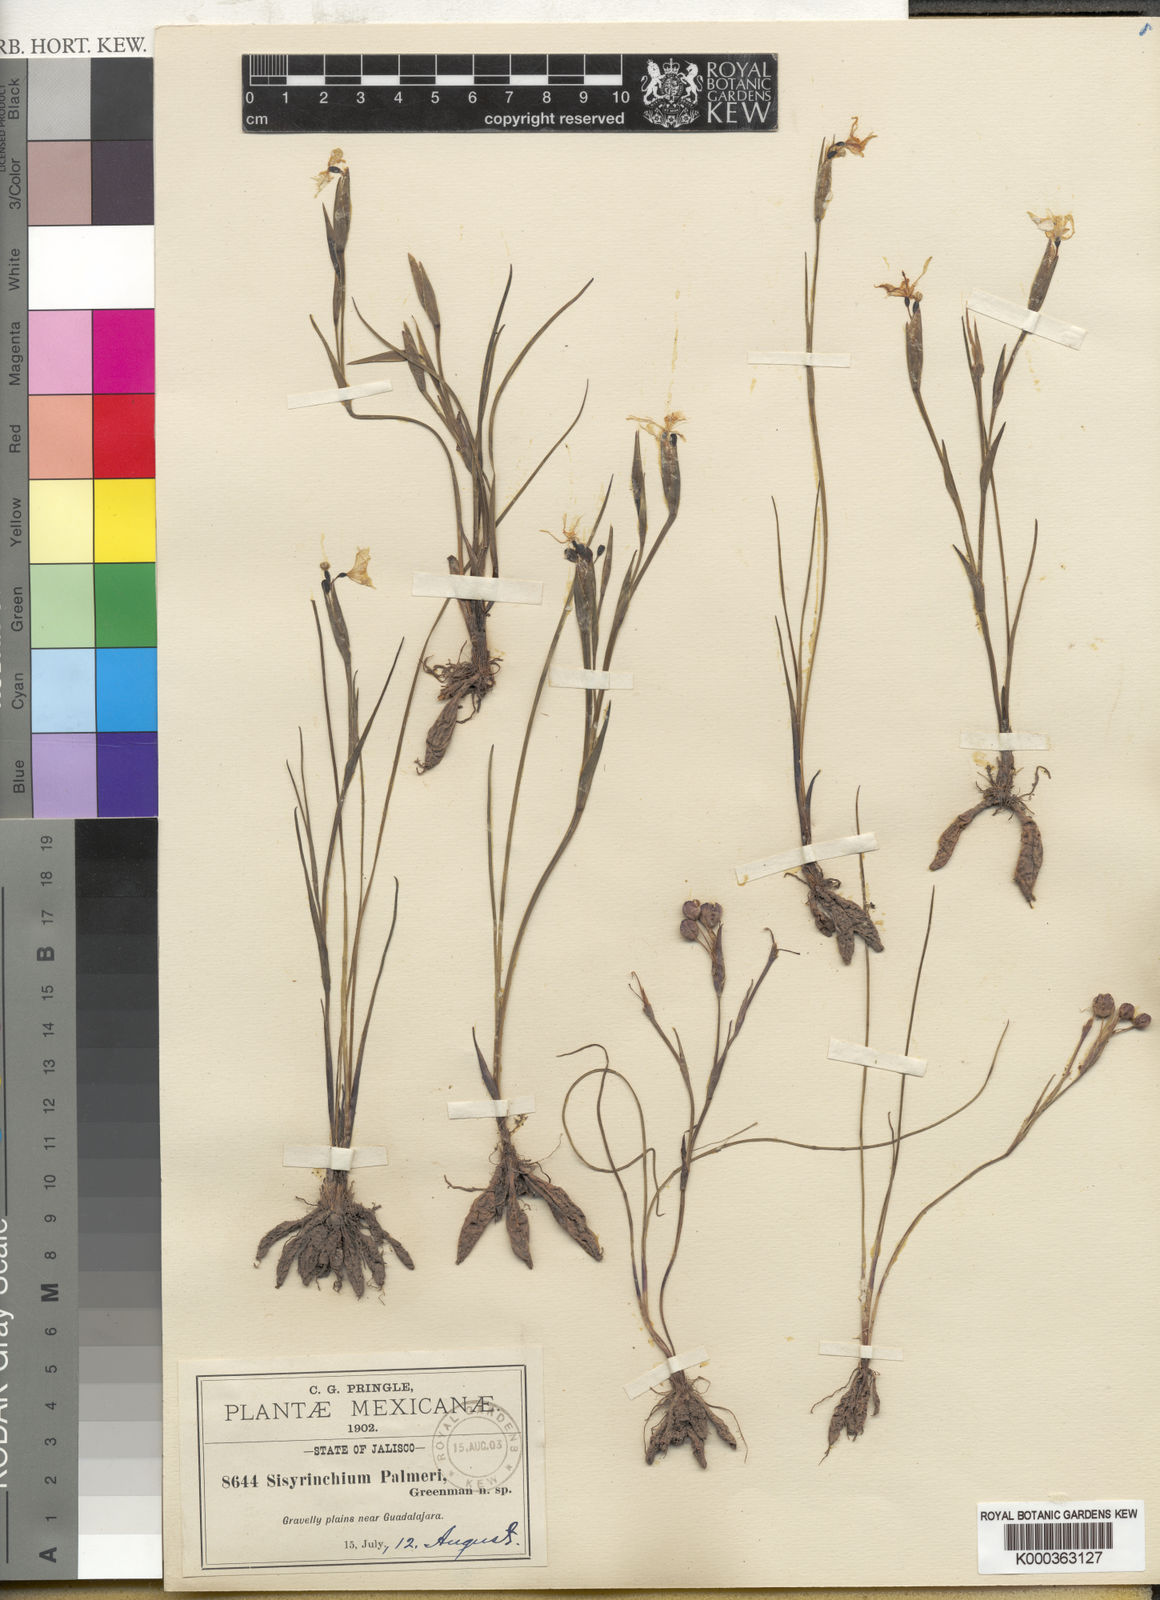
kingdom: Plantae
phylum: Tracheophyta
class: Liliopsida
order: Asparagales
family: Iridaceae
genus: Sisyrinchium
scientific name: Sisyrinchium tolucense
